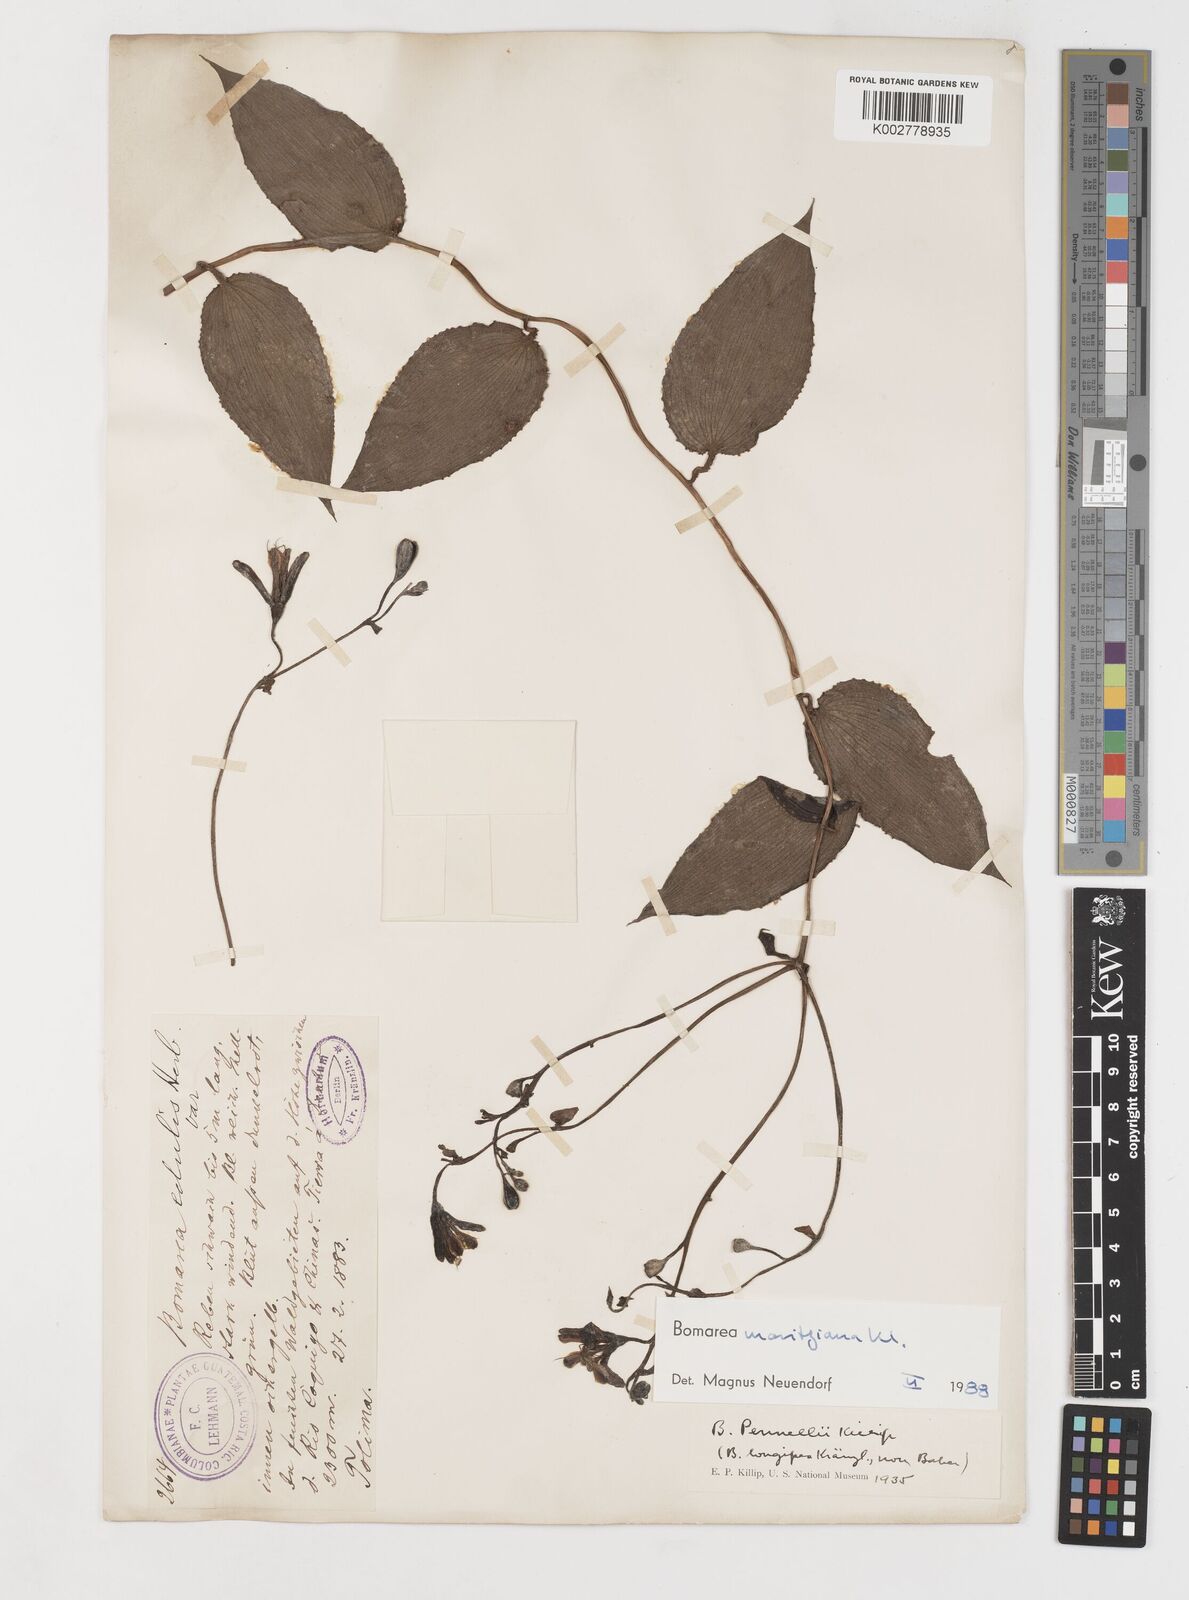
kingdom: Plantae
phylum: Tracheophyta
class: Liliopsida
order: Liliales
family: Alstroemeriaceae
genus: Bomarea
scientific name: Bomarea moritziana
